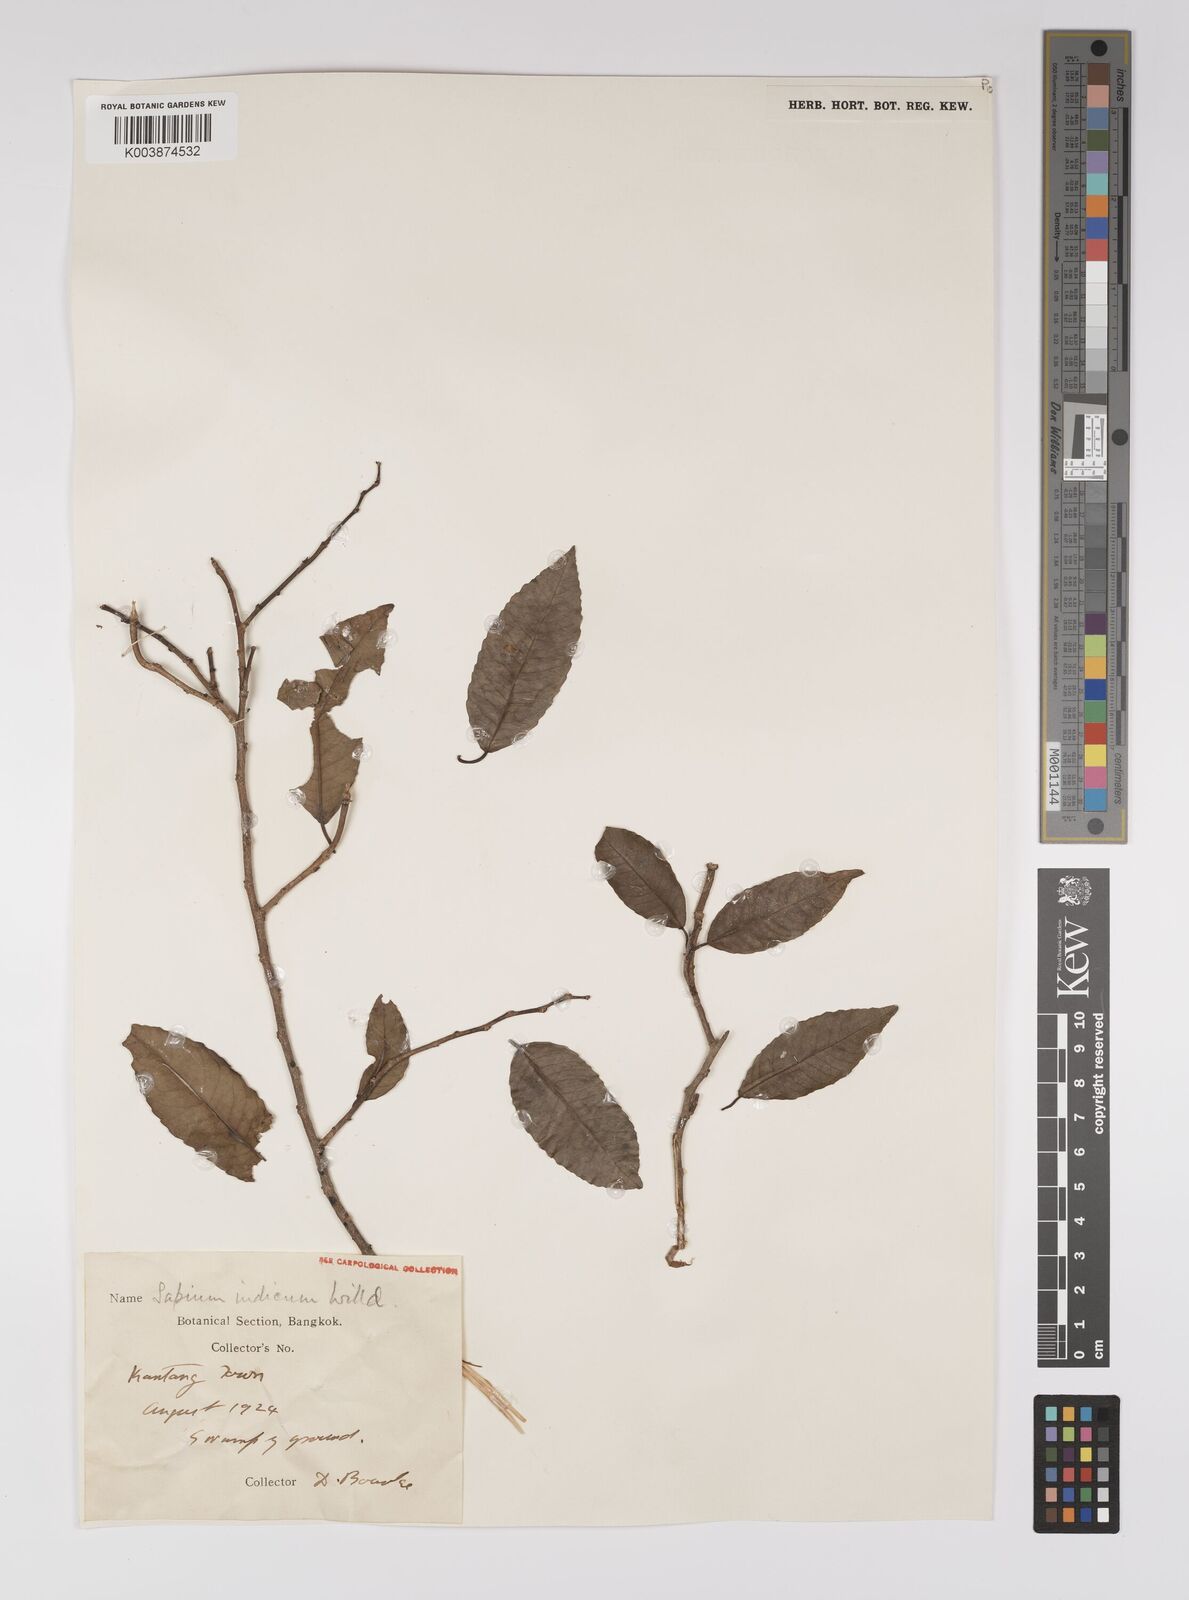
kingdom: Plantae
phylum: Tracheophyta
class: Magnoliopsida
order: Malpighiales
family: Euphorbiaceae
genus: Shirakiopsis
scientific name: Shirakiopsis indica
